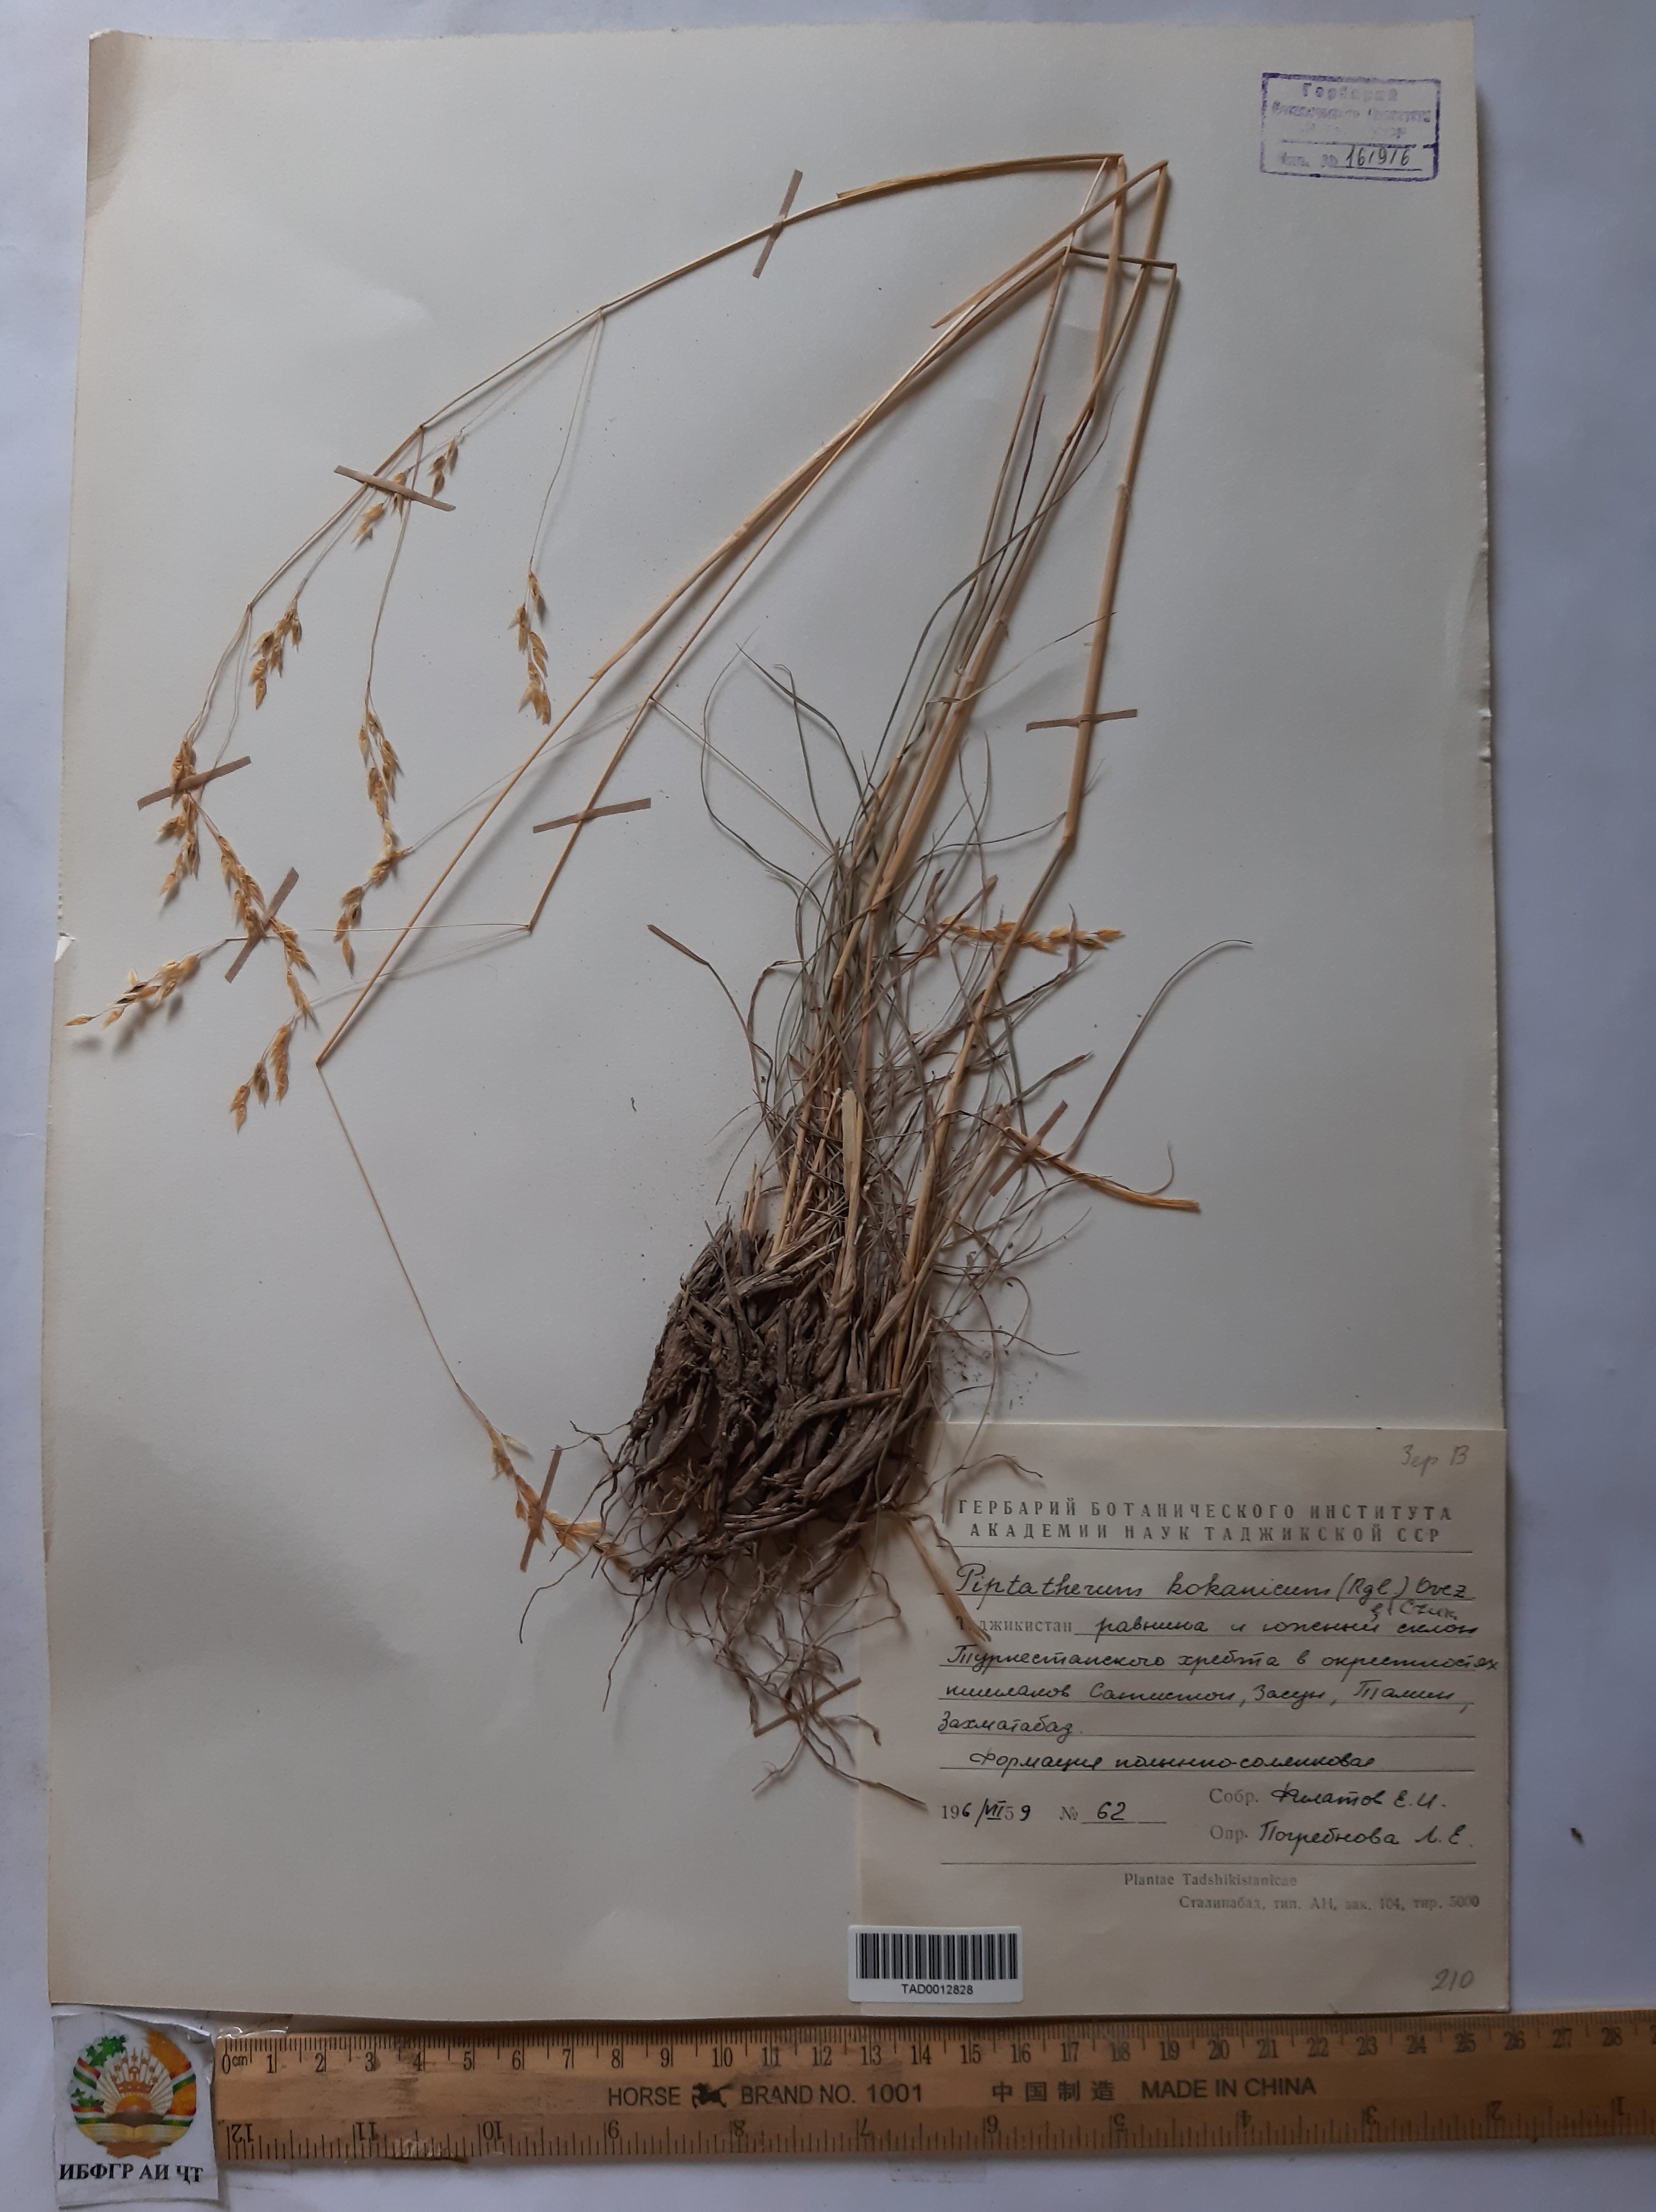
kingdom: Plantae
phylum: Tracheophyta
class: Liliopsida
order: Poales
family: Poaceae
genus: Piptatherum
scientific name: Piptatherum songaricum
